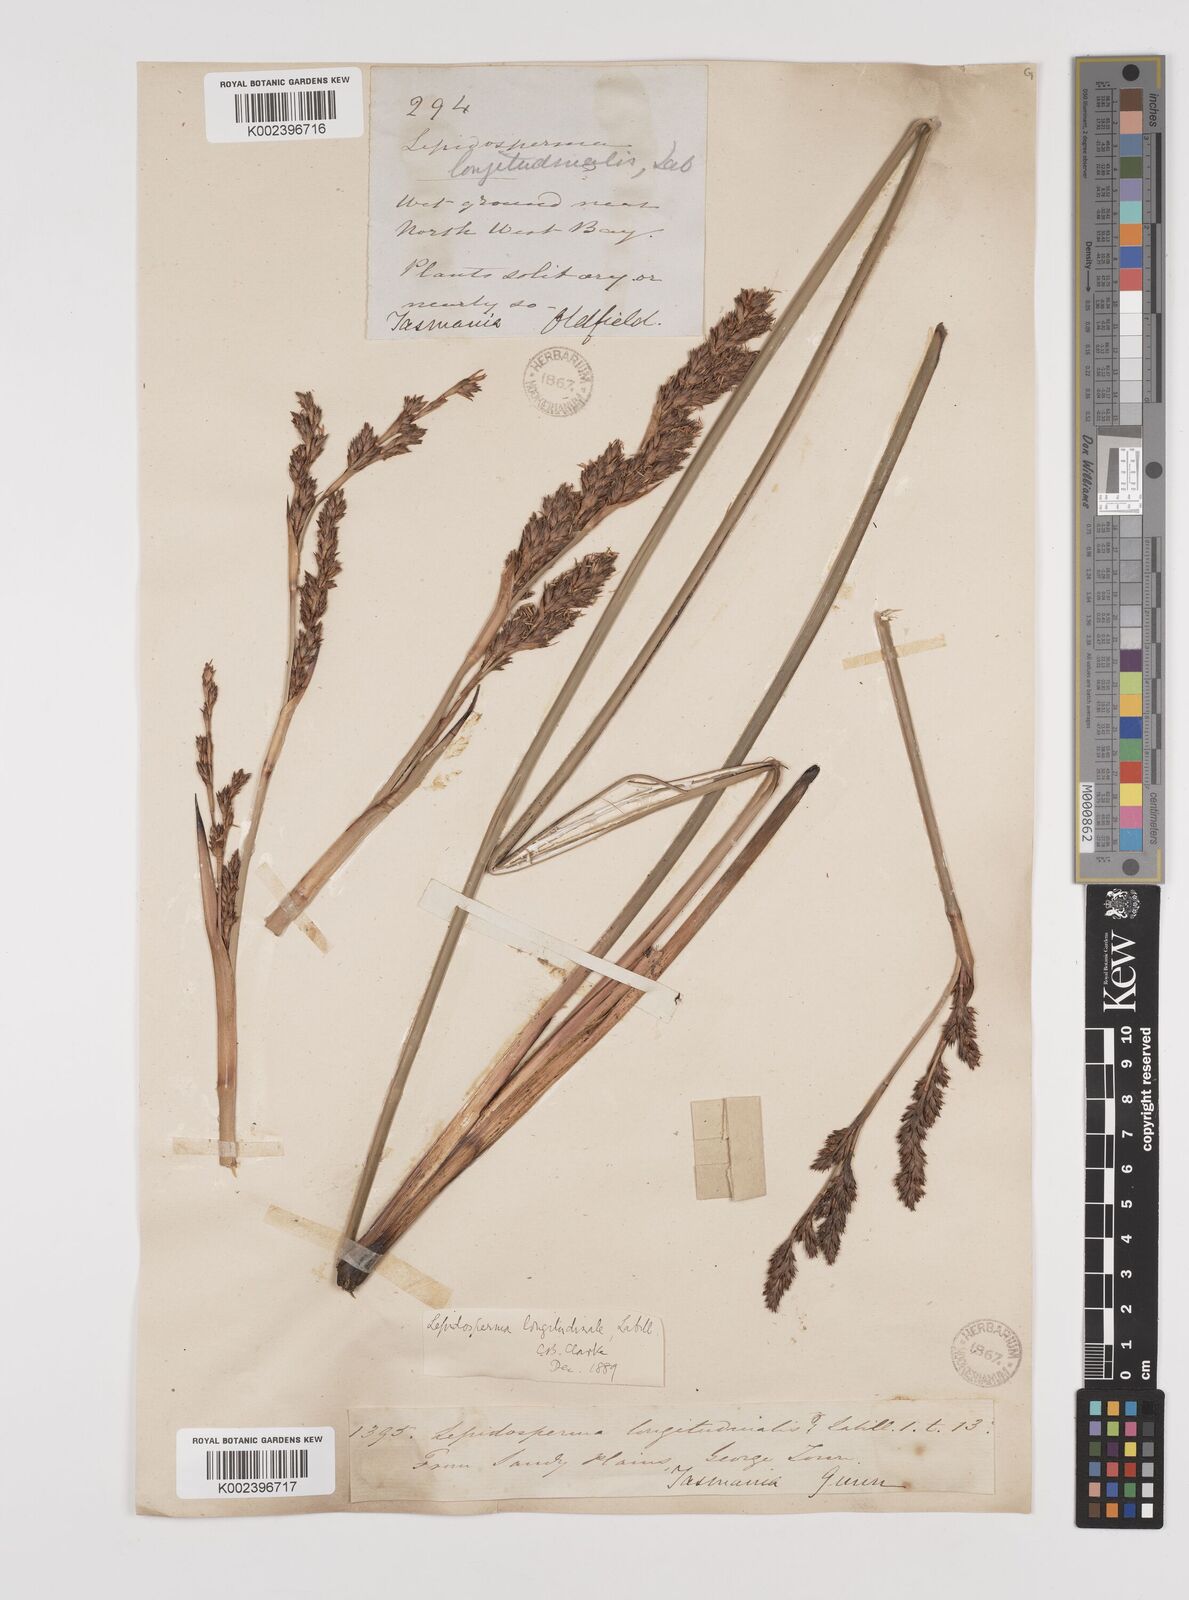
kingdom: Plantae
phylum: Tracheophyta
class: Liliopsida
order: Poales
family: Cyperaceae
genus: Lepidosperma
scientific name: Lepidosperma longitudinale
